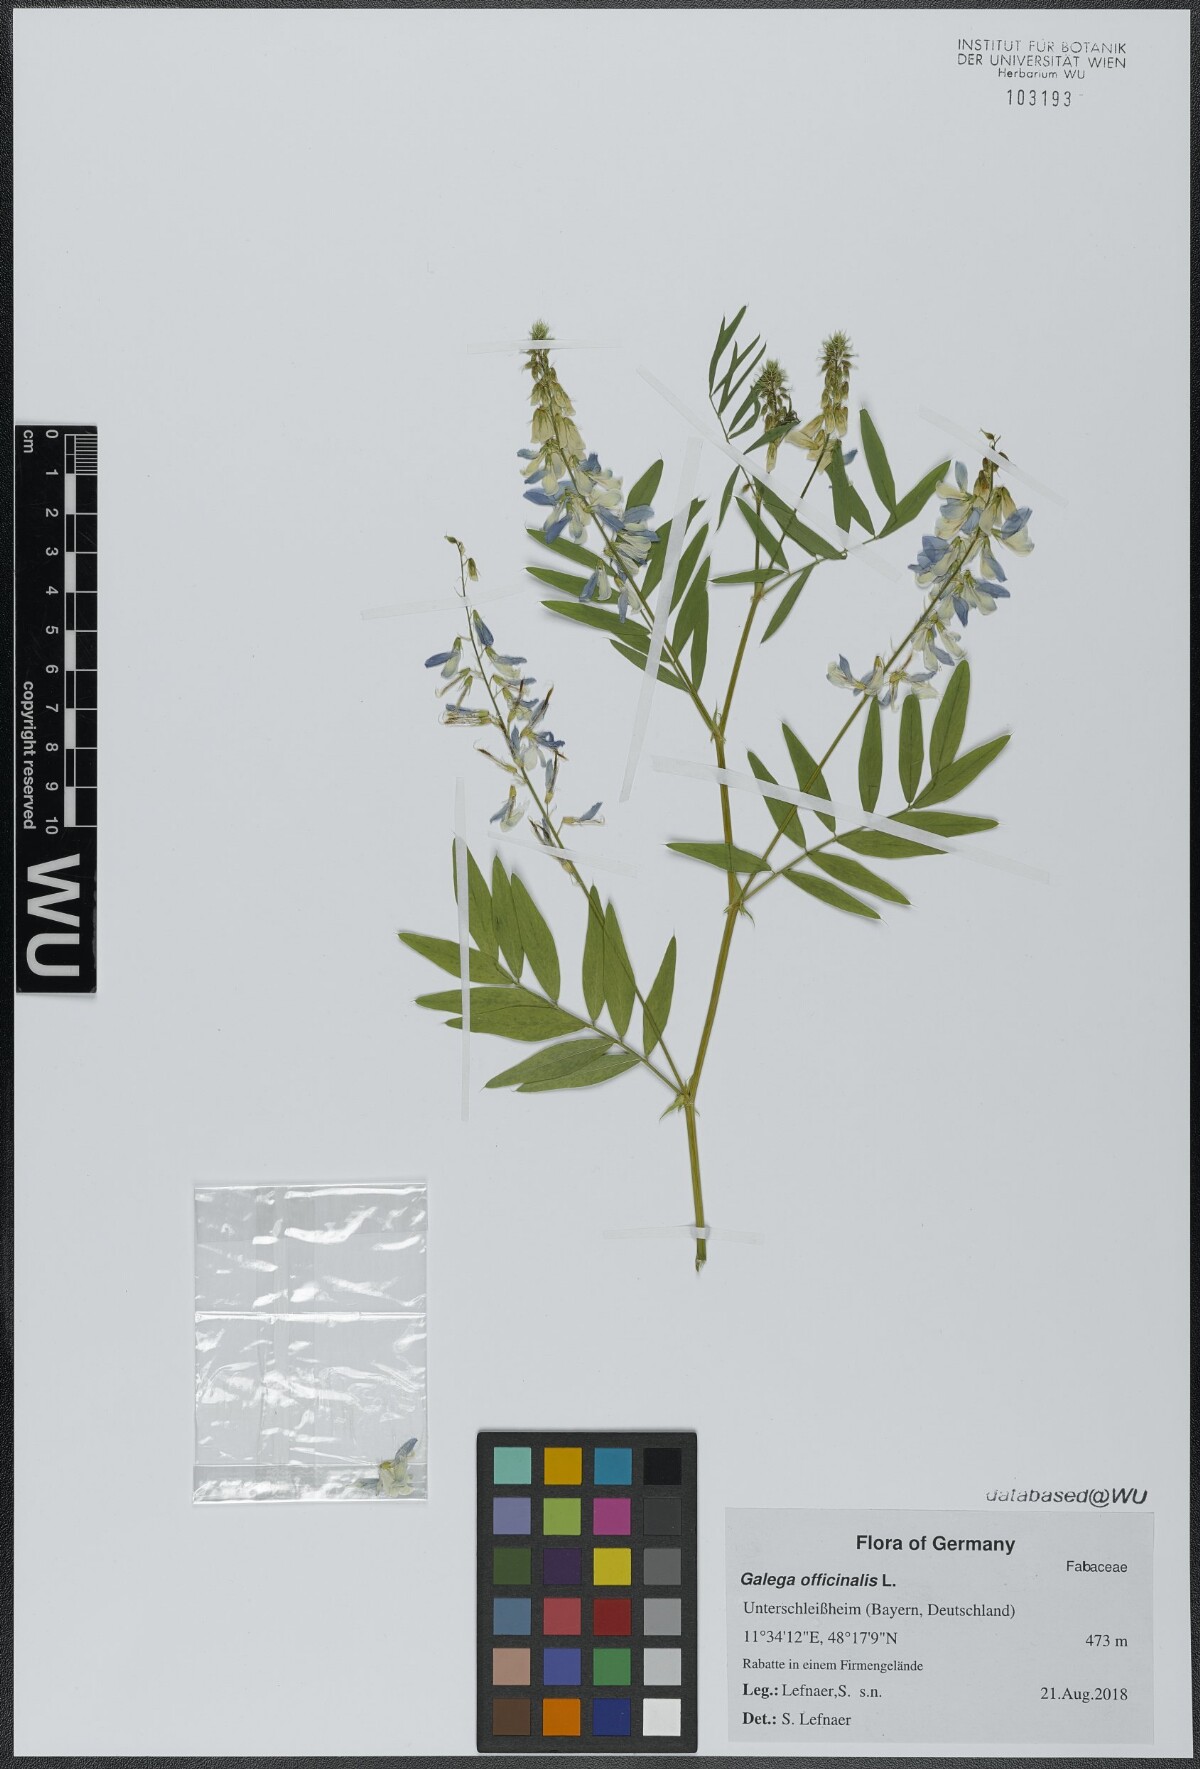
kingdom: Plantae
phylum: Tracheophyta
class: Magnoliopsida
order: Fabales
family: Fabaceae
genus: Galega
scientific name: Galega officinalis
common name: Goat's-rue
